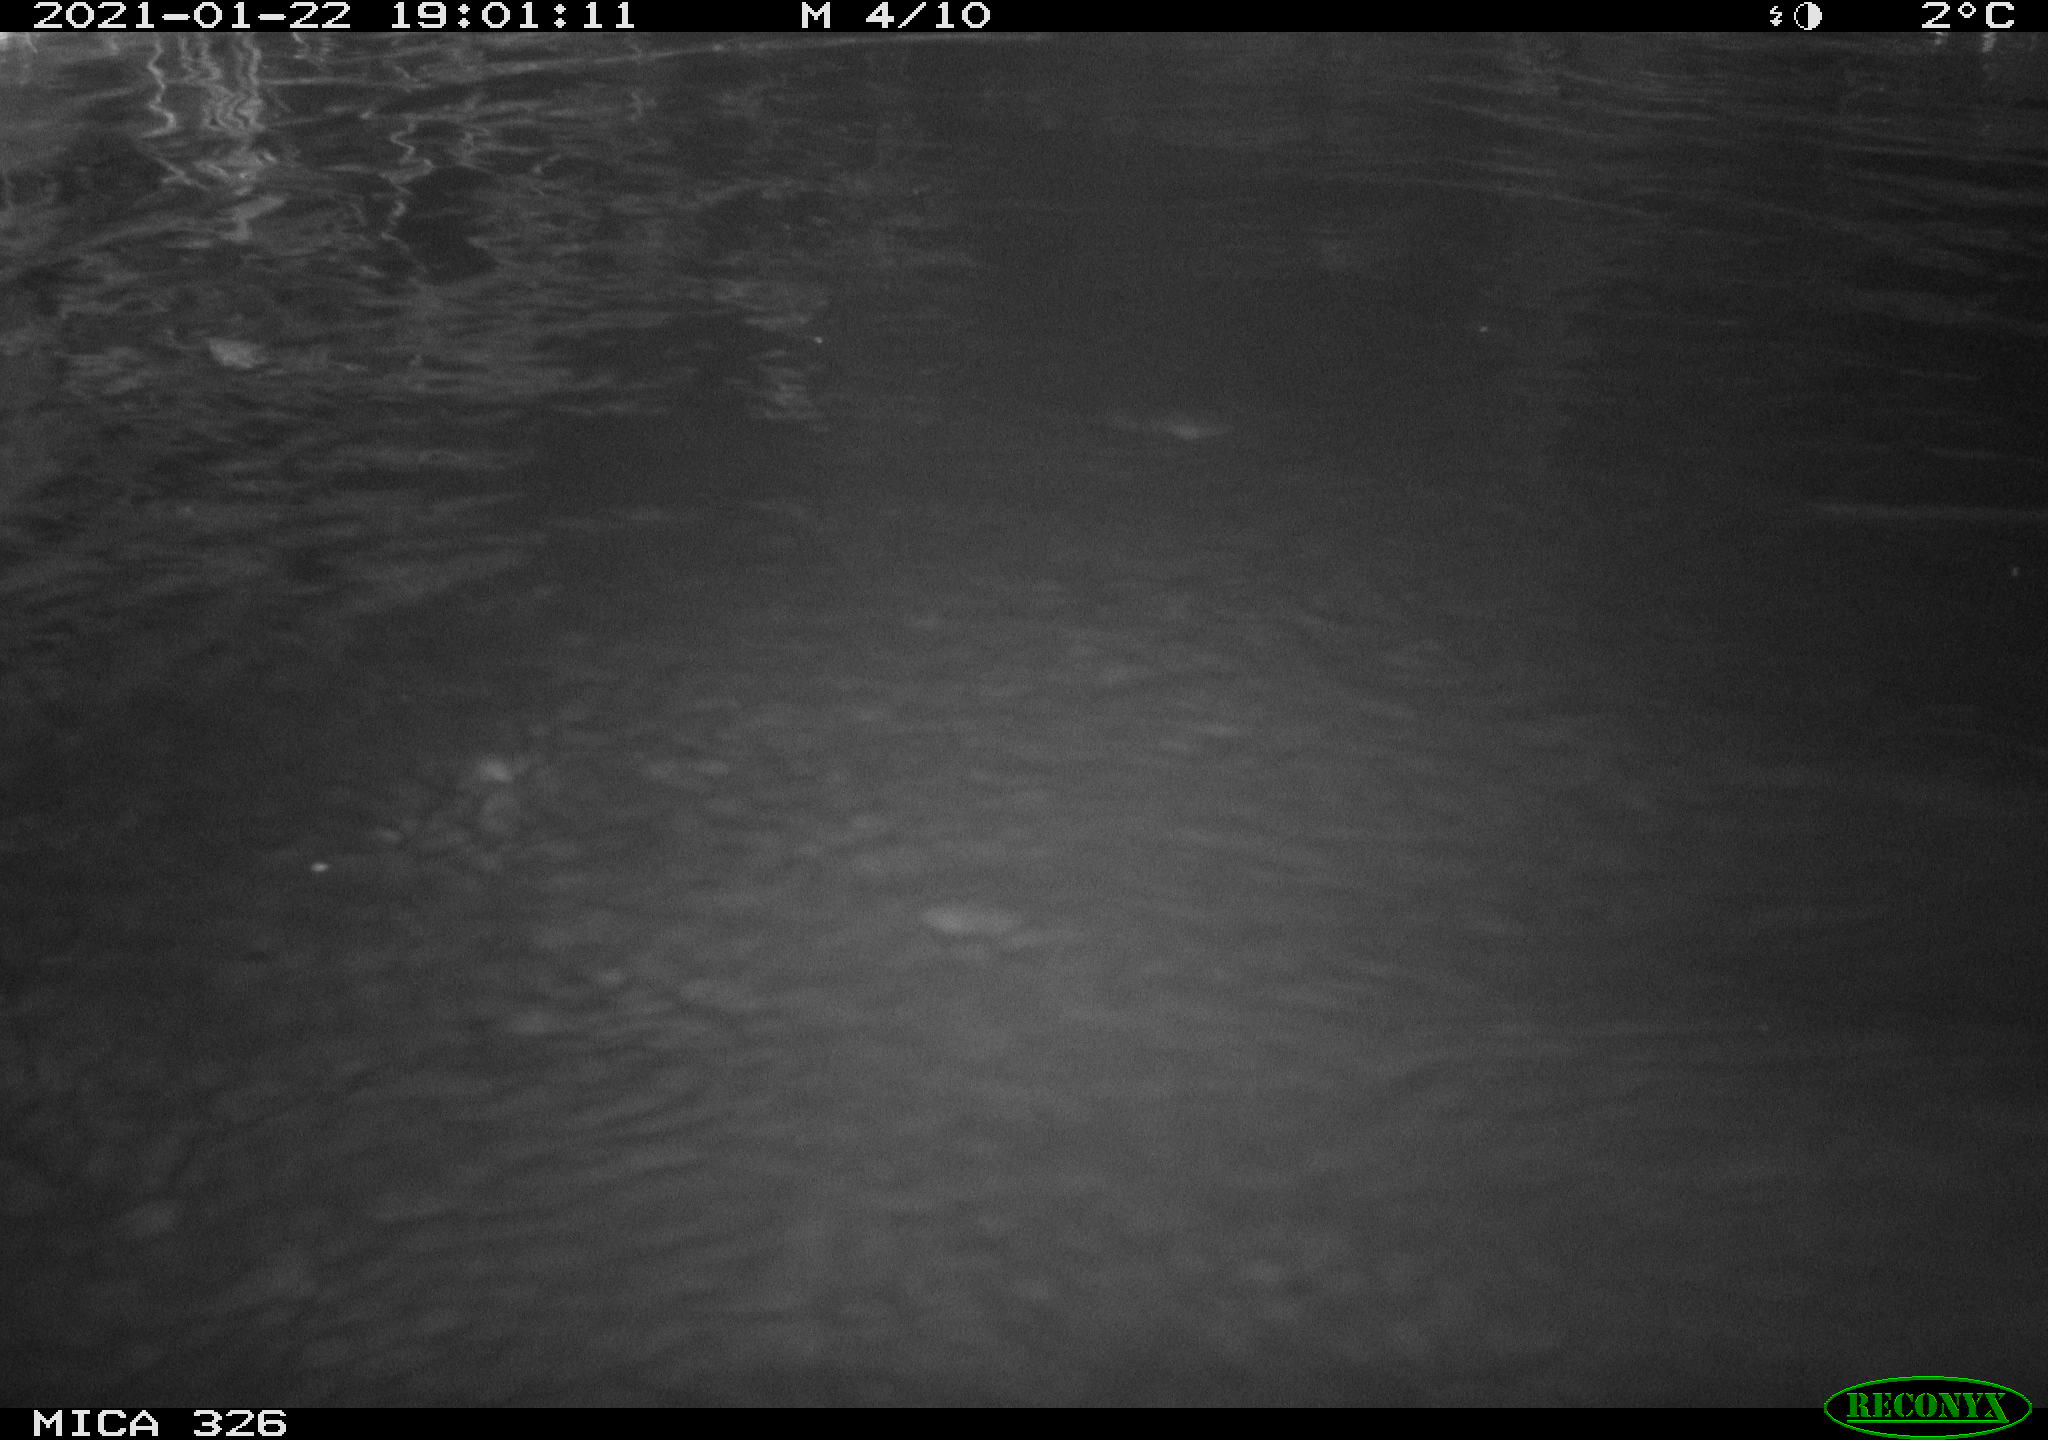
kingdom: Animalia
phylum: Chordata
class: Mammalia
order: Rodentia
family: Myocastoridae
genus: Myocastor
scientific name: Myocastor coypus
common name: Coypu
